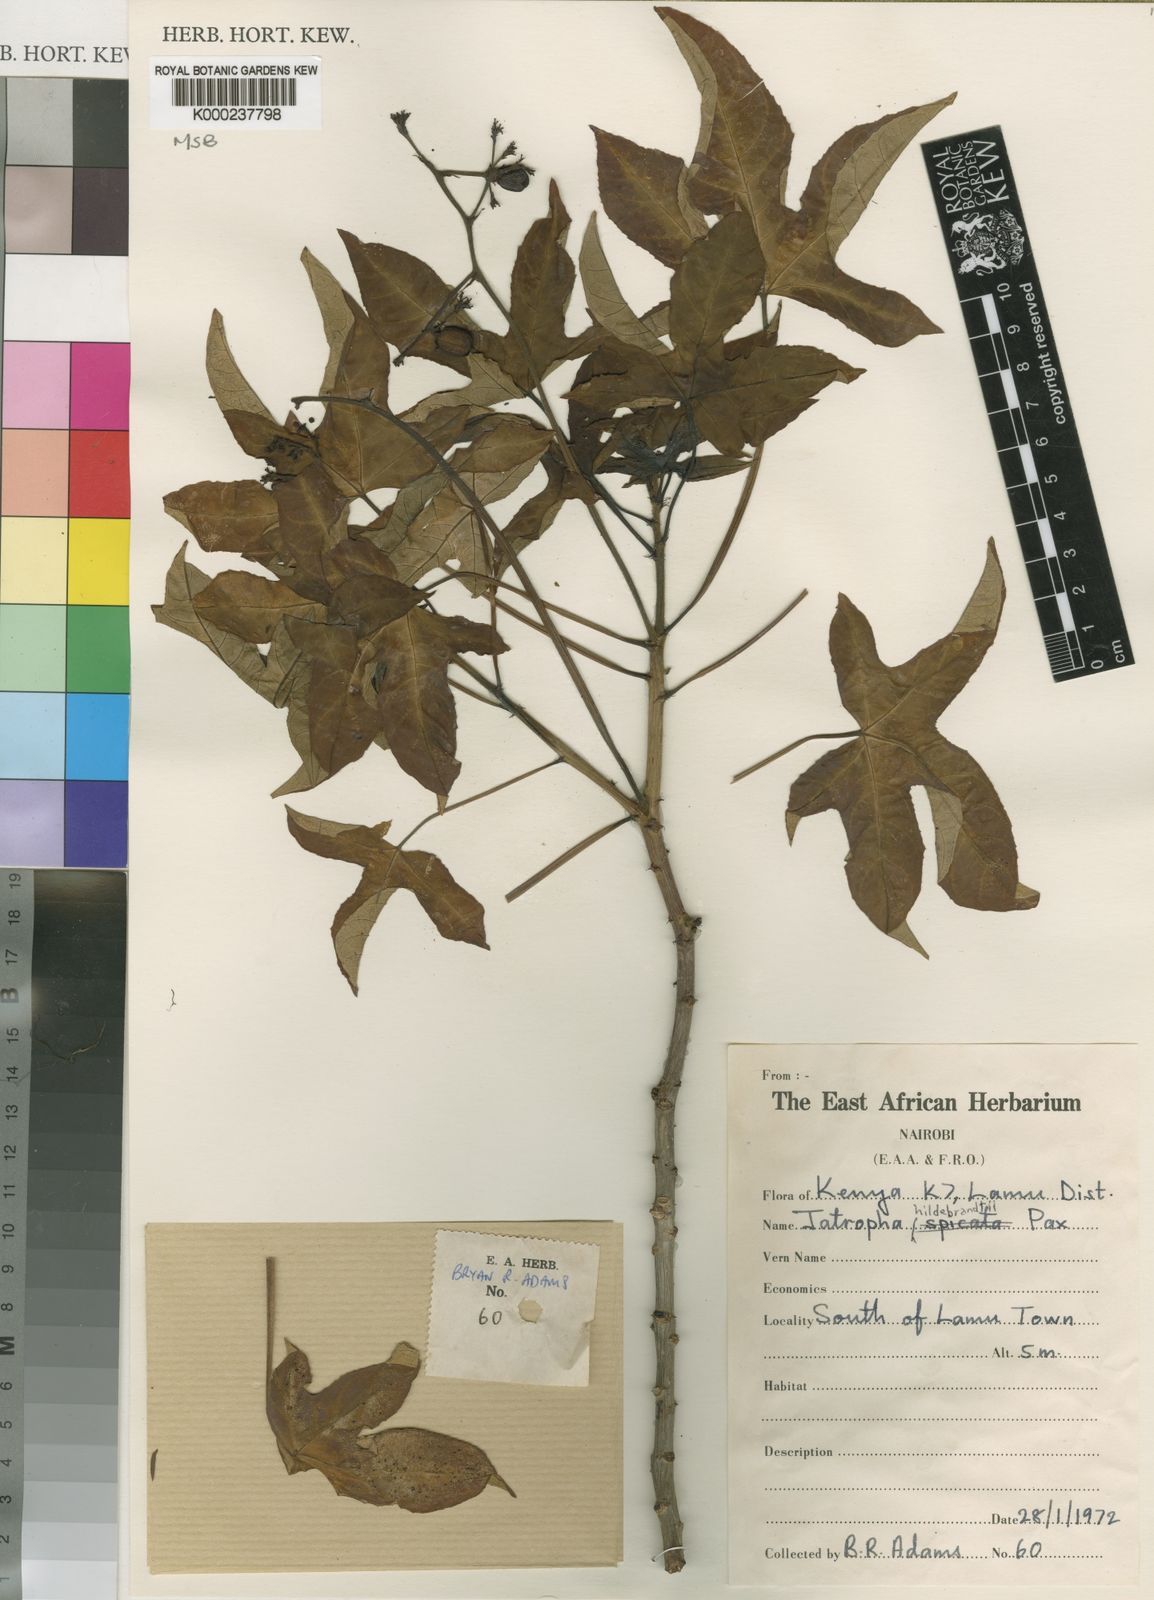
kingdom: Plantae
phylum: Tracheophyta
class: Magnoliopsida
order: Malpighiales
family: Euphorbiaceae
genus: Jatropha
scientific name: Jatropha hildebrandtii
